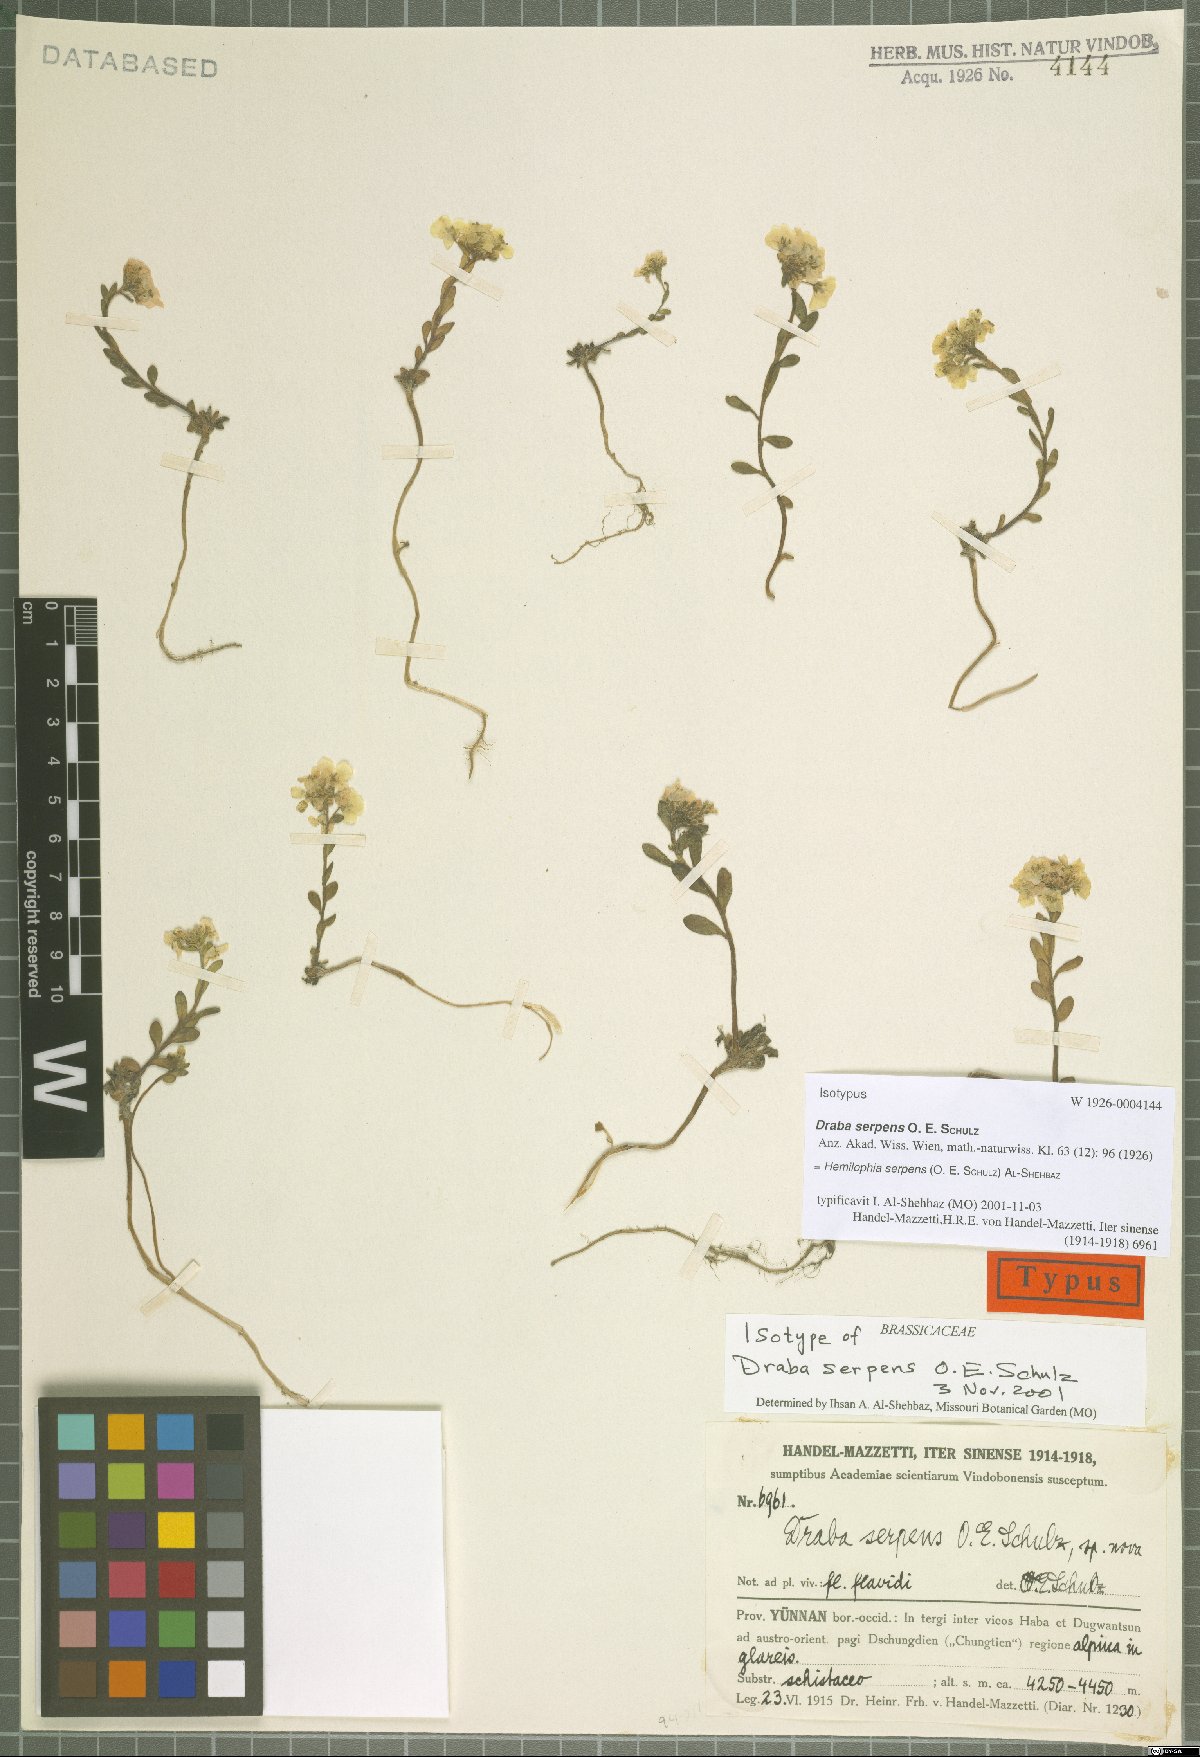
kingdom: Plantae
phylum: Tracheophyta
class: Magnoliopsida
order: Brassicales
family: Brassicaceae
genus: Hemilophia
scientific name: Hemilophia serpens
